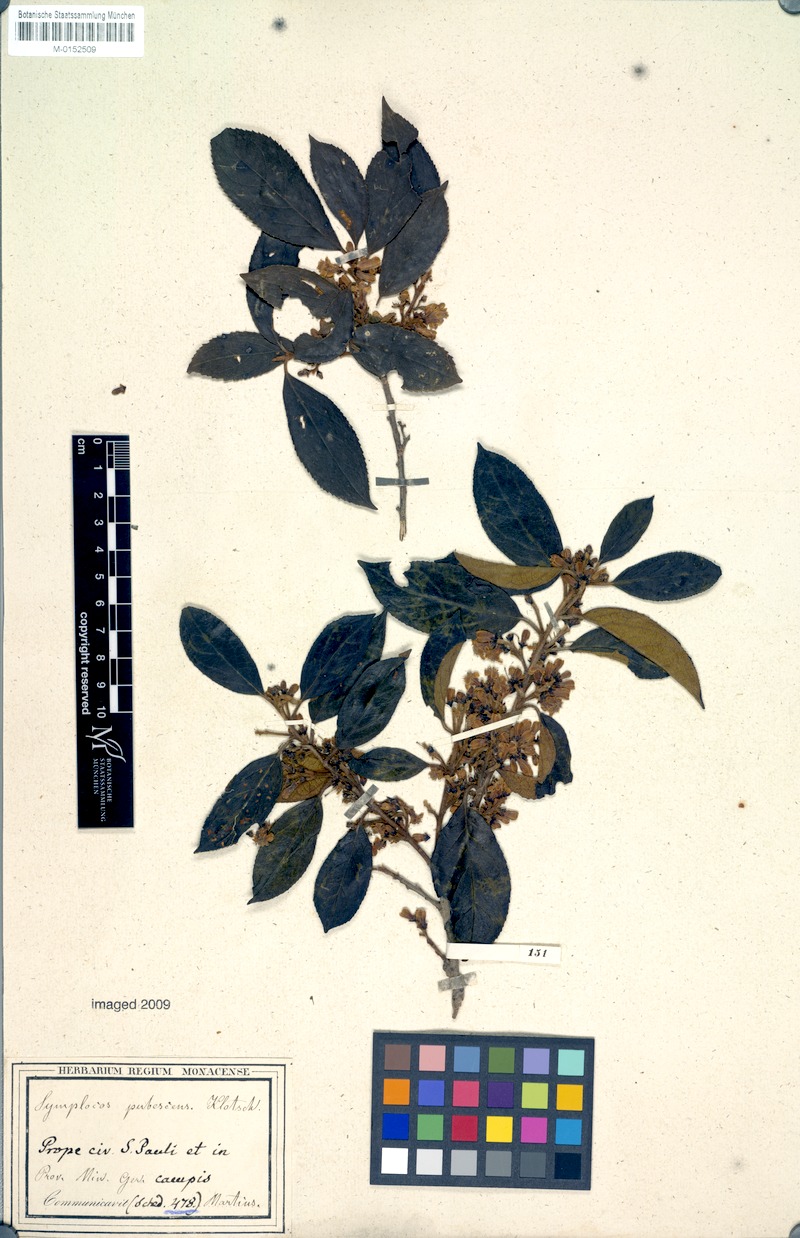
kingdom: Plantae
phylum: Tracheophyta
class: Magnoliopsida
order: Ericales
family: Symplocaceae
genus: Symplocos
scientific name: Symplocos pubescens
